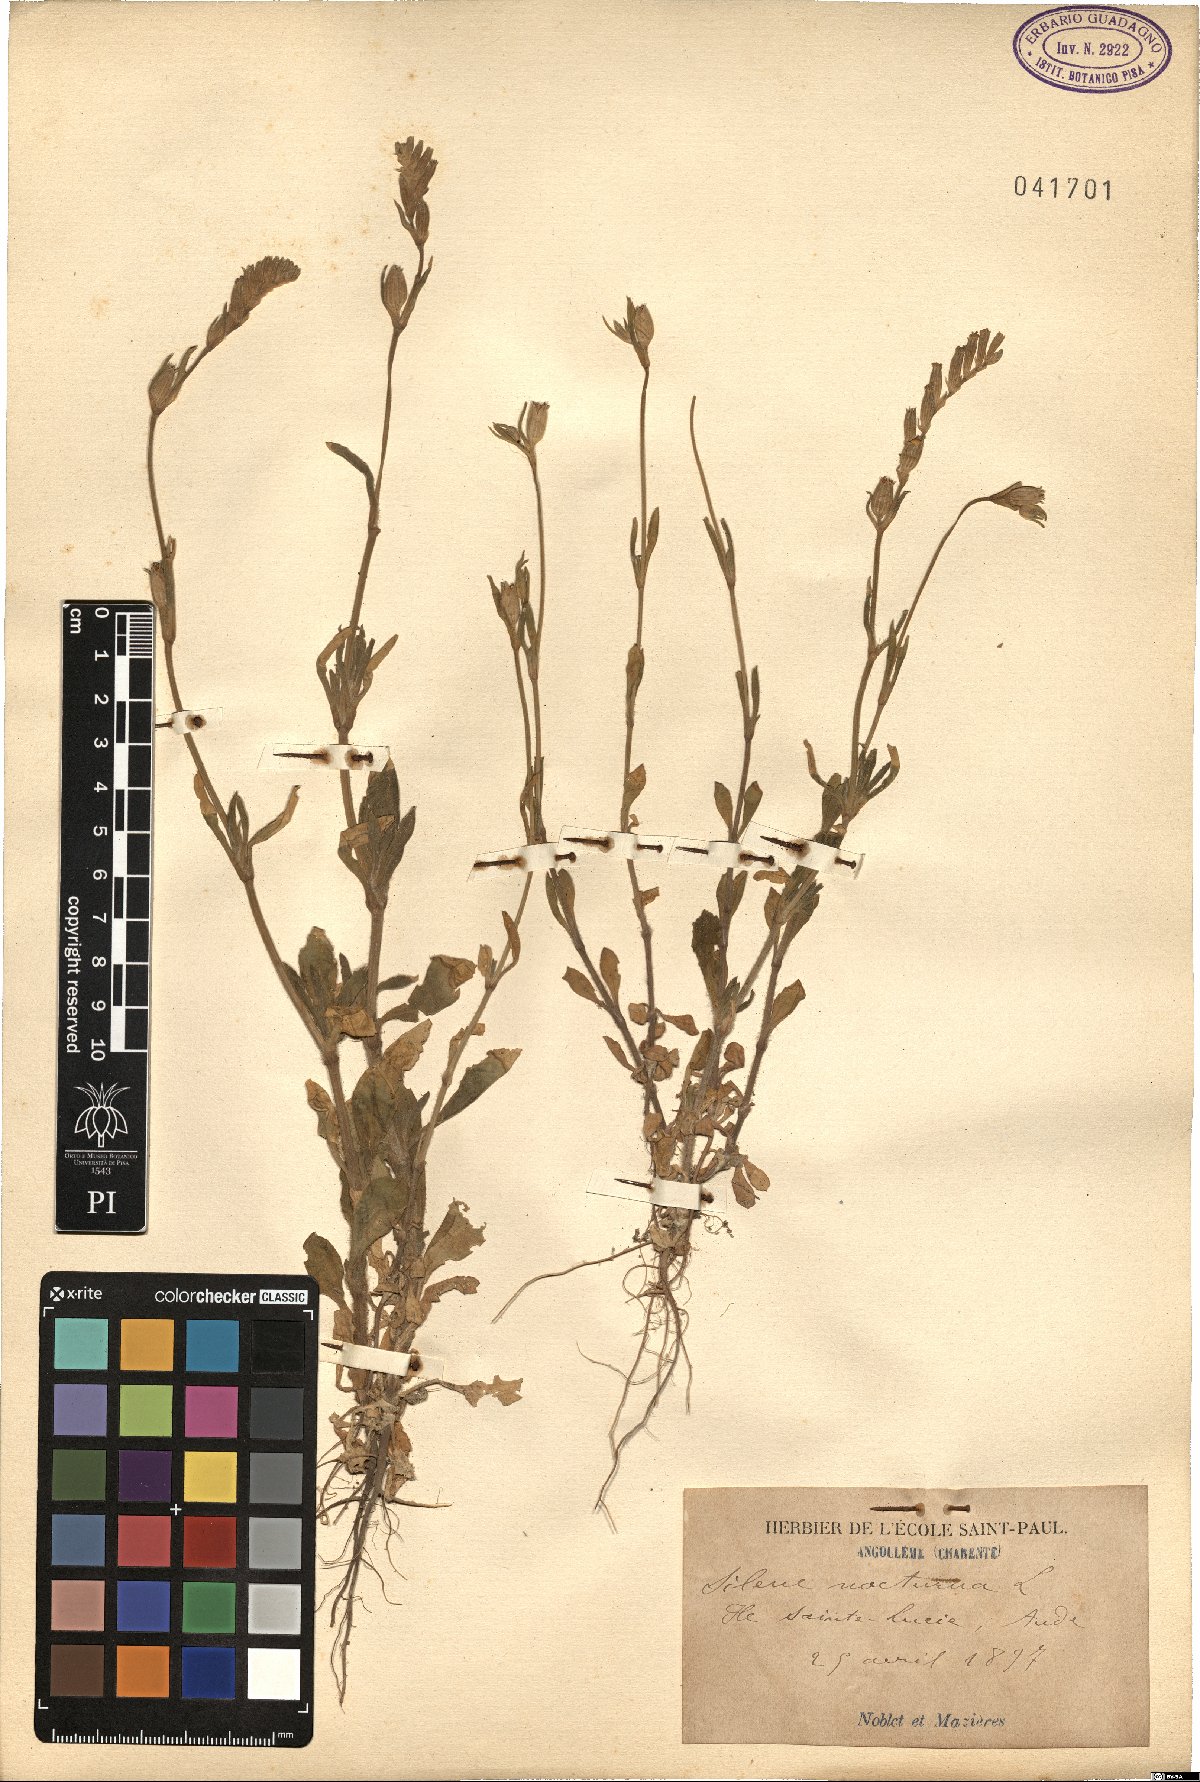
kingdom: Plantae
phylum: Tracheophyta
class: Magnoliopsida
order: Caryophyllales
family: Caryophyllaceae
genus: Silene
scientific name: Silene nocturna
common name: Mediterranean catchfly
